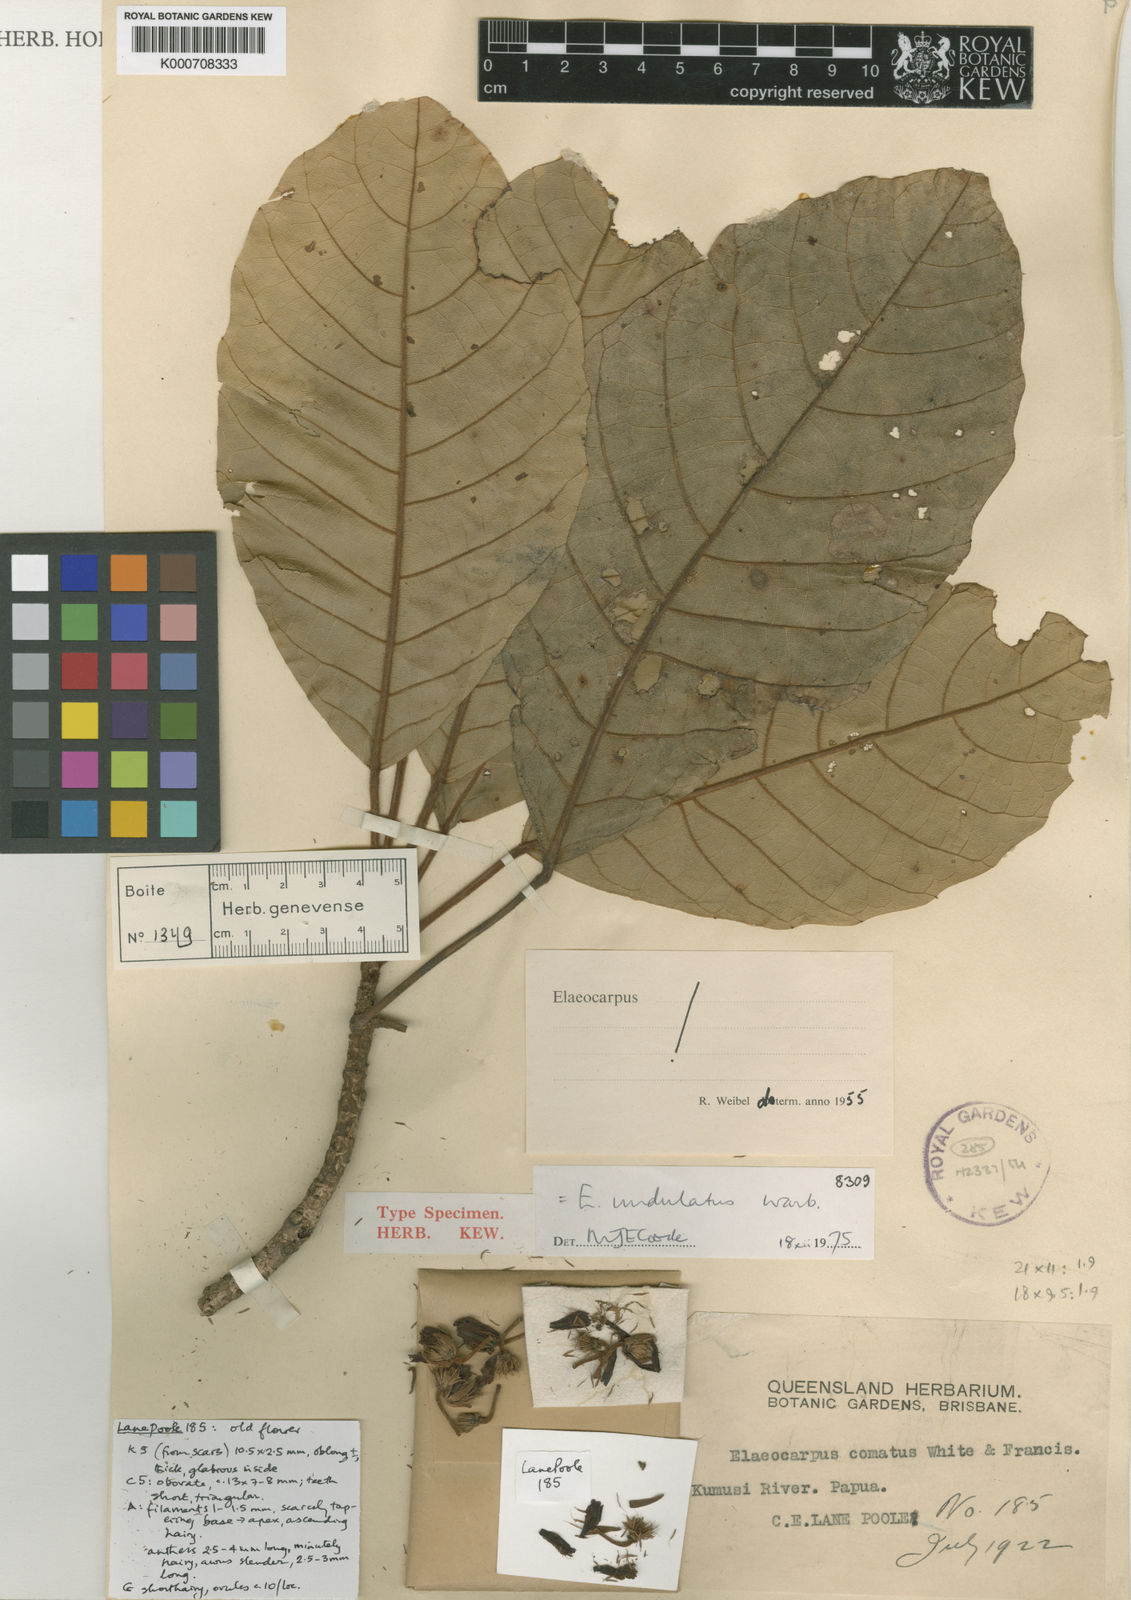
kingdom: Plantae
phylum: Tracheophyta
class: Magnoliopsida
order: Oxalidales
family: Elaeocarpaceae
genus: Elaeocarpus
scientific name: Elaeocarpus undulatus
